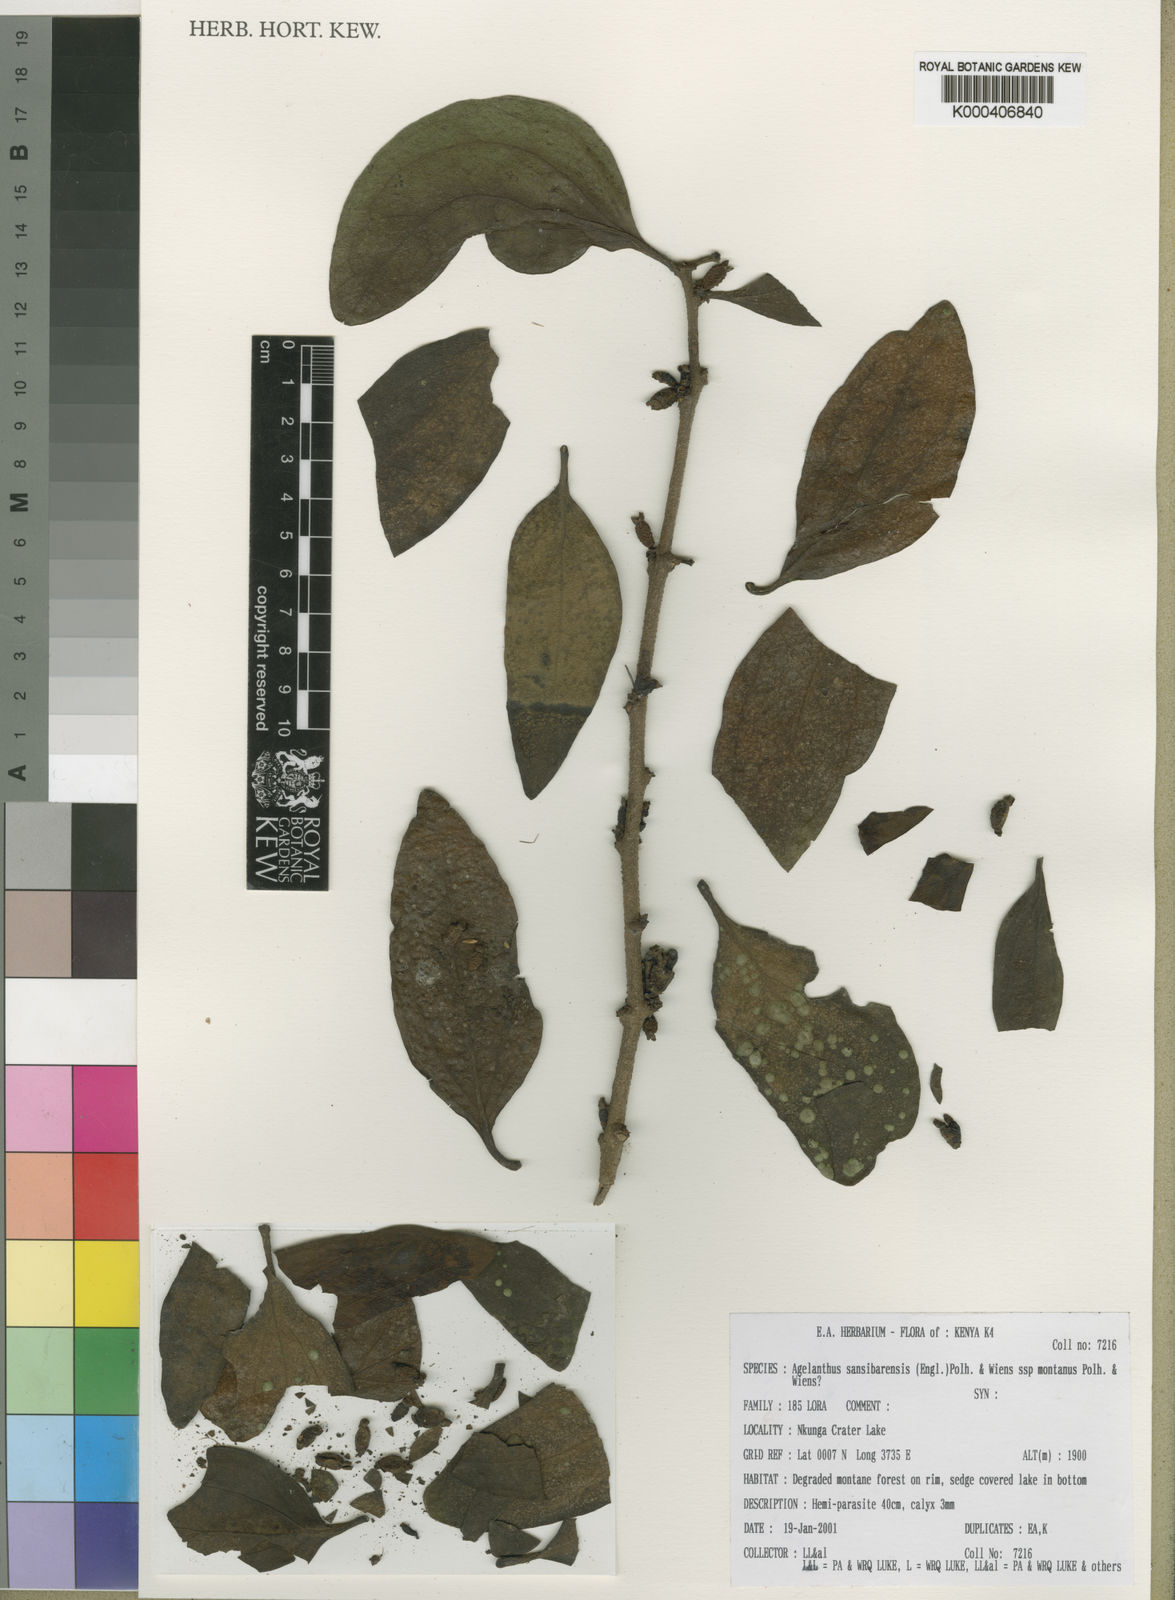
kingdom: Plantae
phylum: Tracheophyta
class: Magnoliopsida
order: Santalales
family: Loranthaceae
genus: Agelanthus
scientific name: Agelanthus sansibarensis
